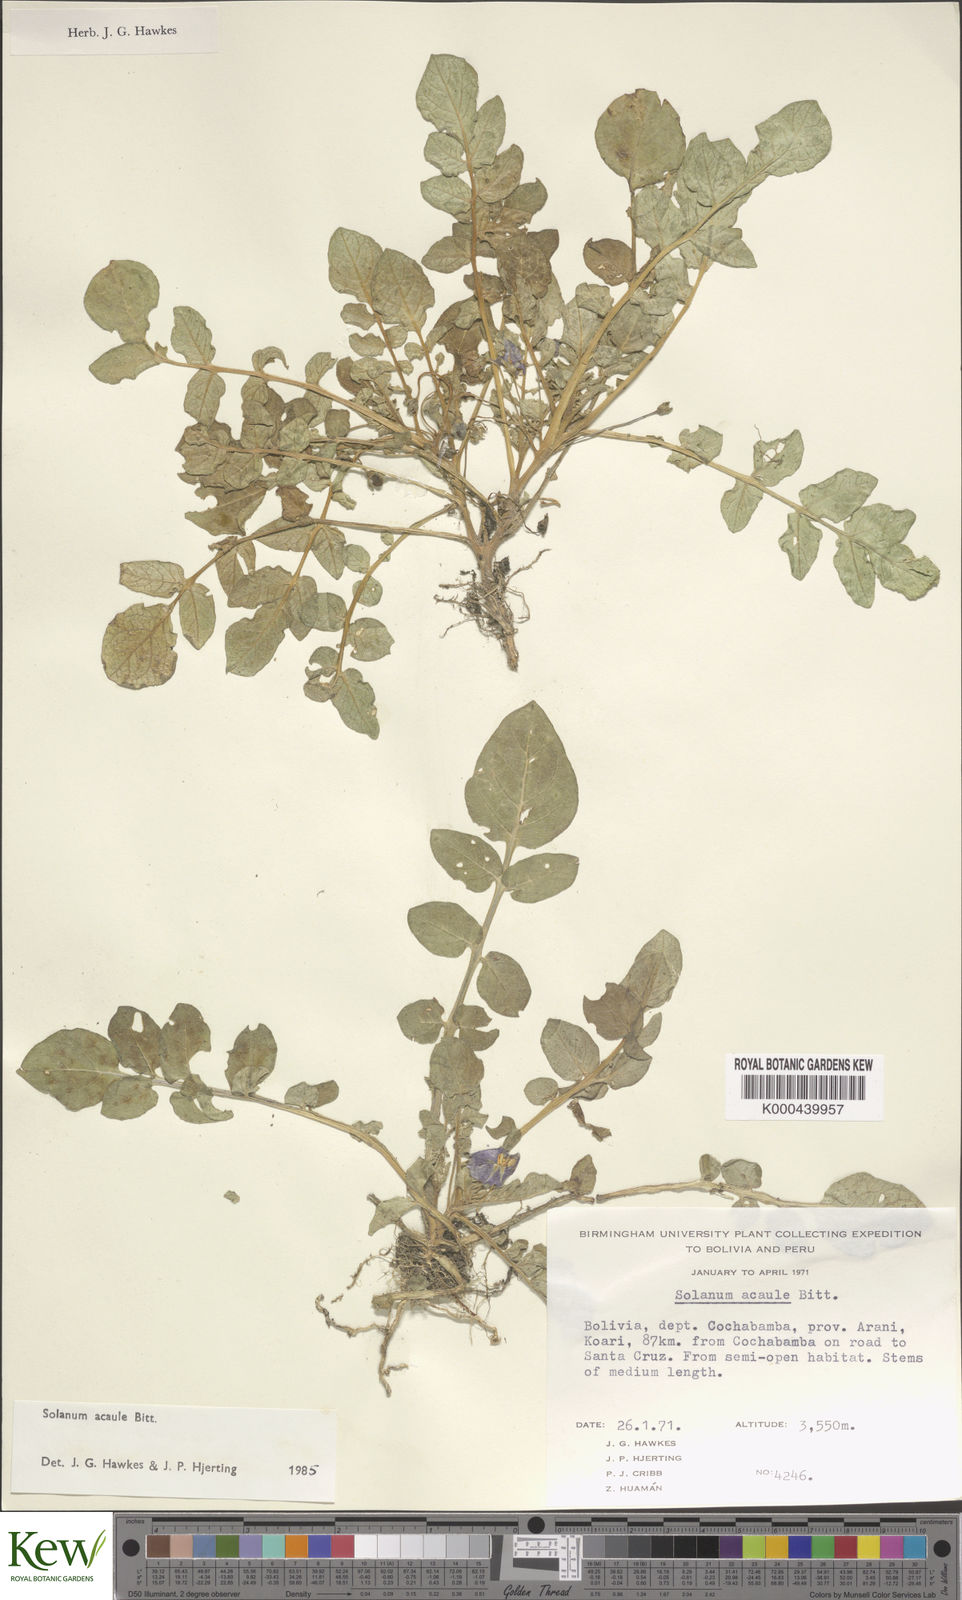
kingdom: Plantae
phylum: Tracheophyta
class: Magnoliopsida
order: Solanales
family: Solanaceae
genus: Solanum
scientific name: Solanum acaule
